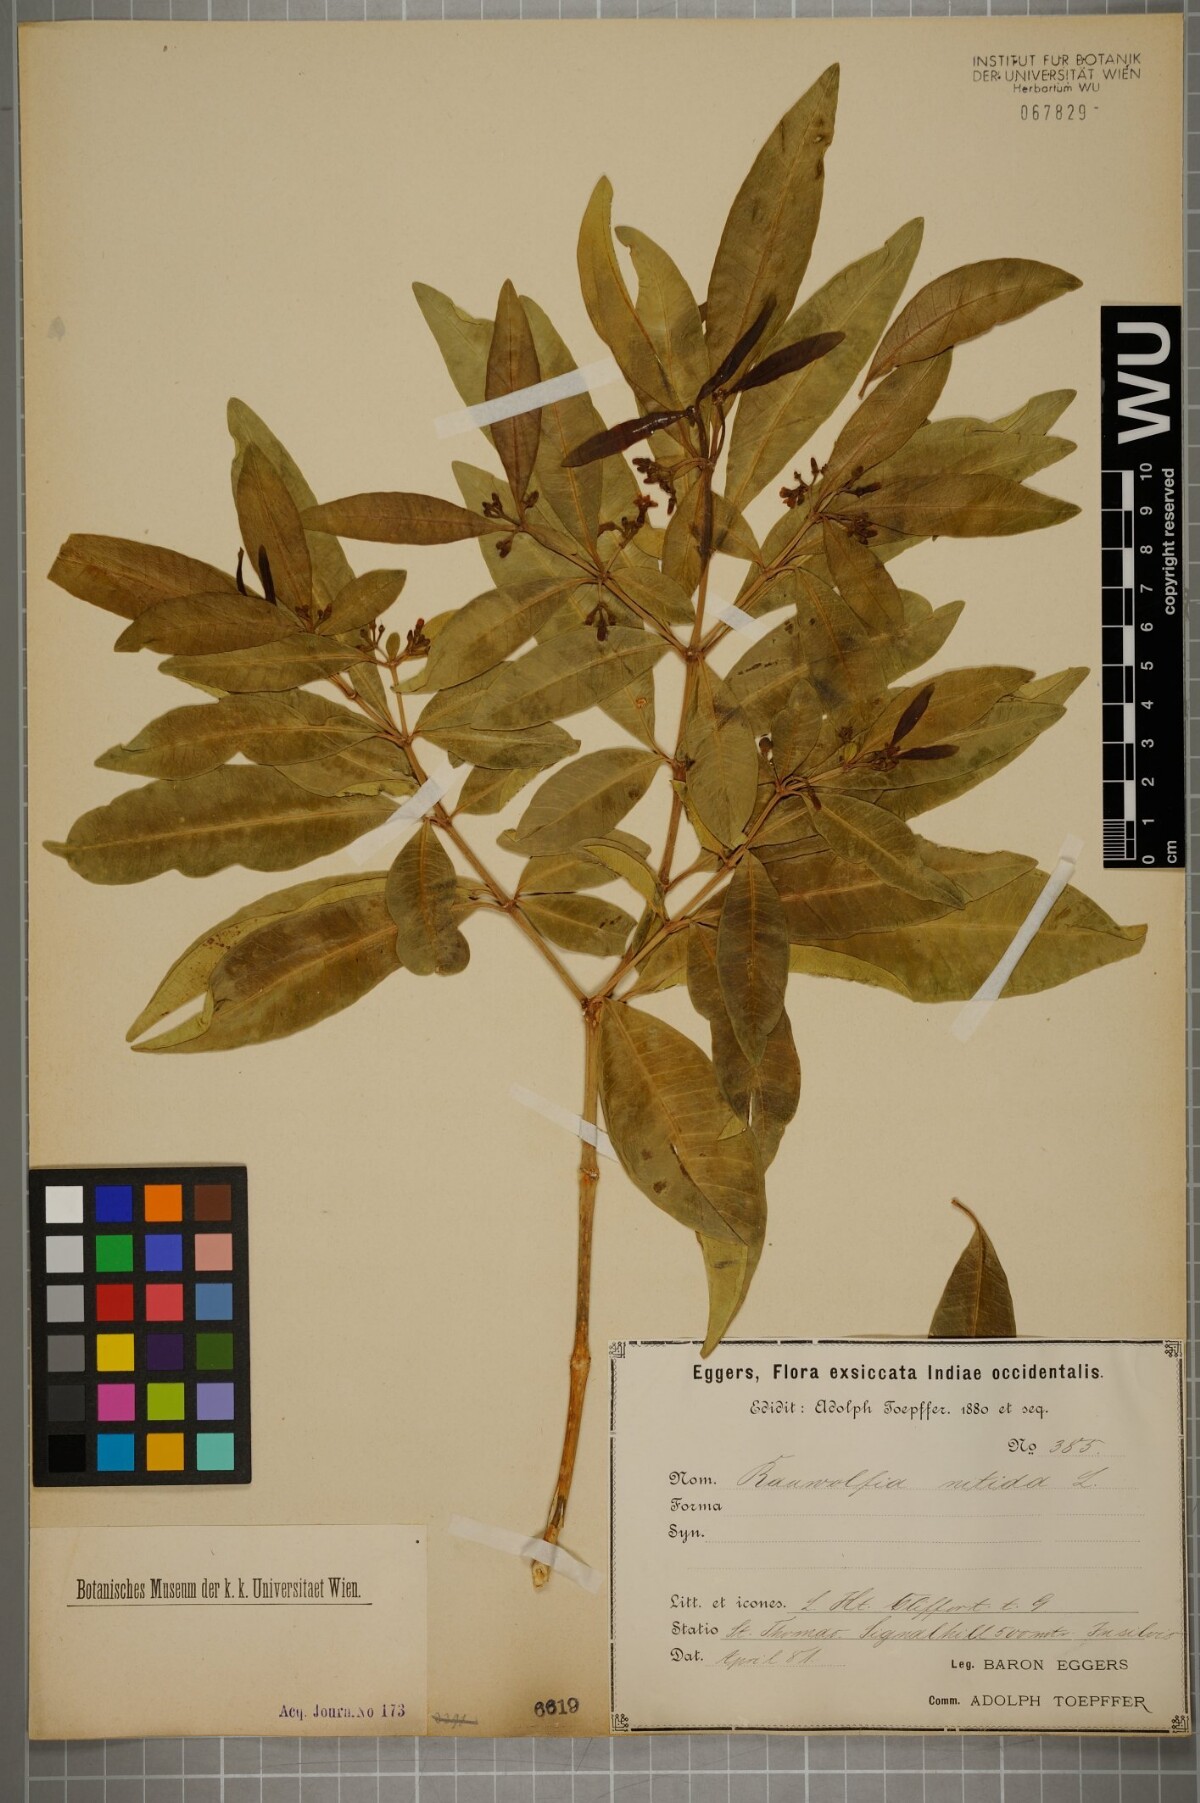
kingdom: Plantae
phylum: Tracheophyta
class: Magnoliopsida
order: Gentianales
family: Apocynaceae
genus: Rauvolfia
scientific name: Rauvolfia nitida
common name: Bitter-ash
